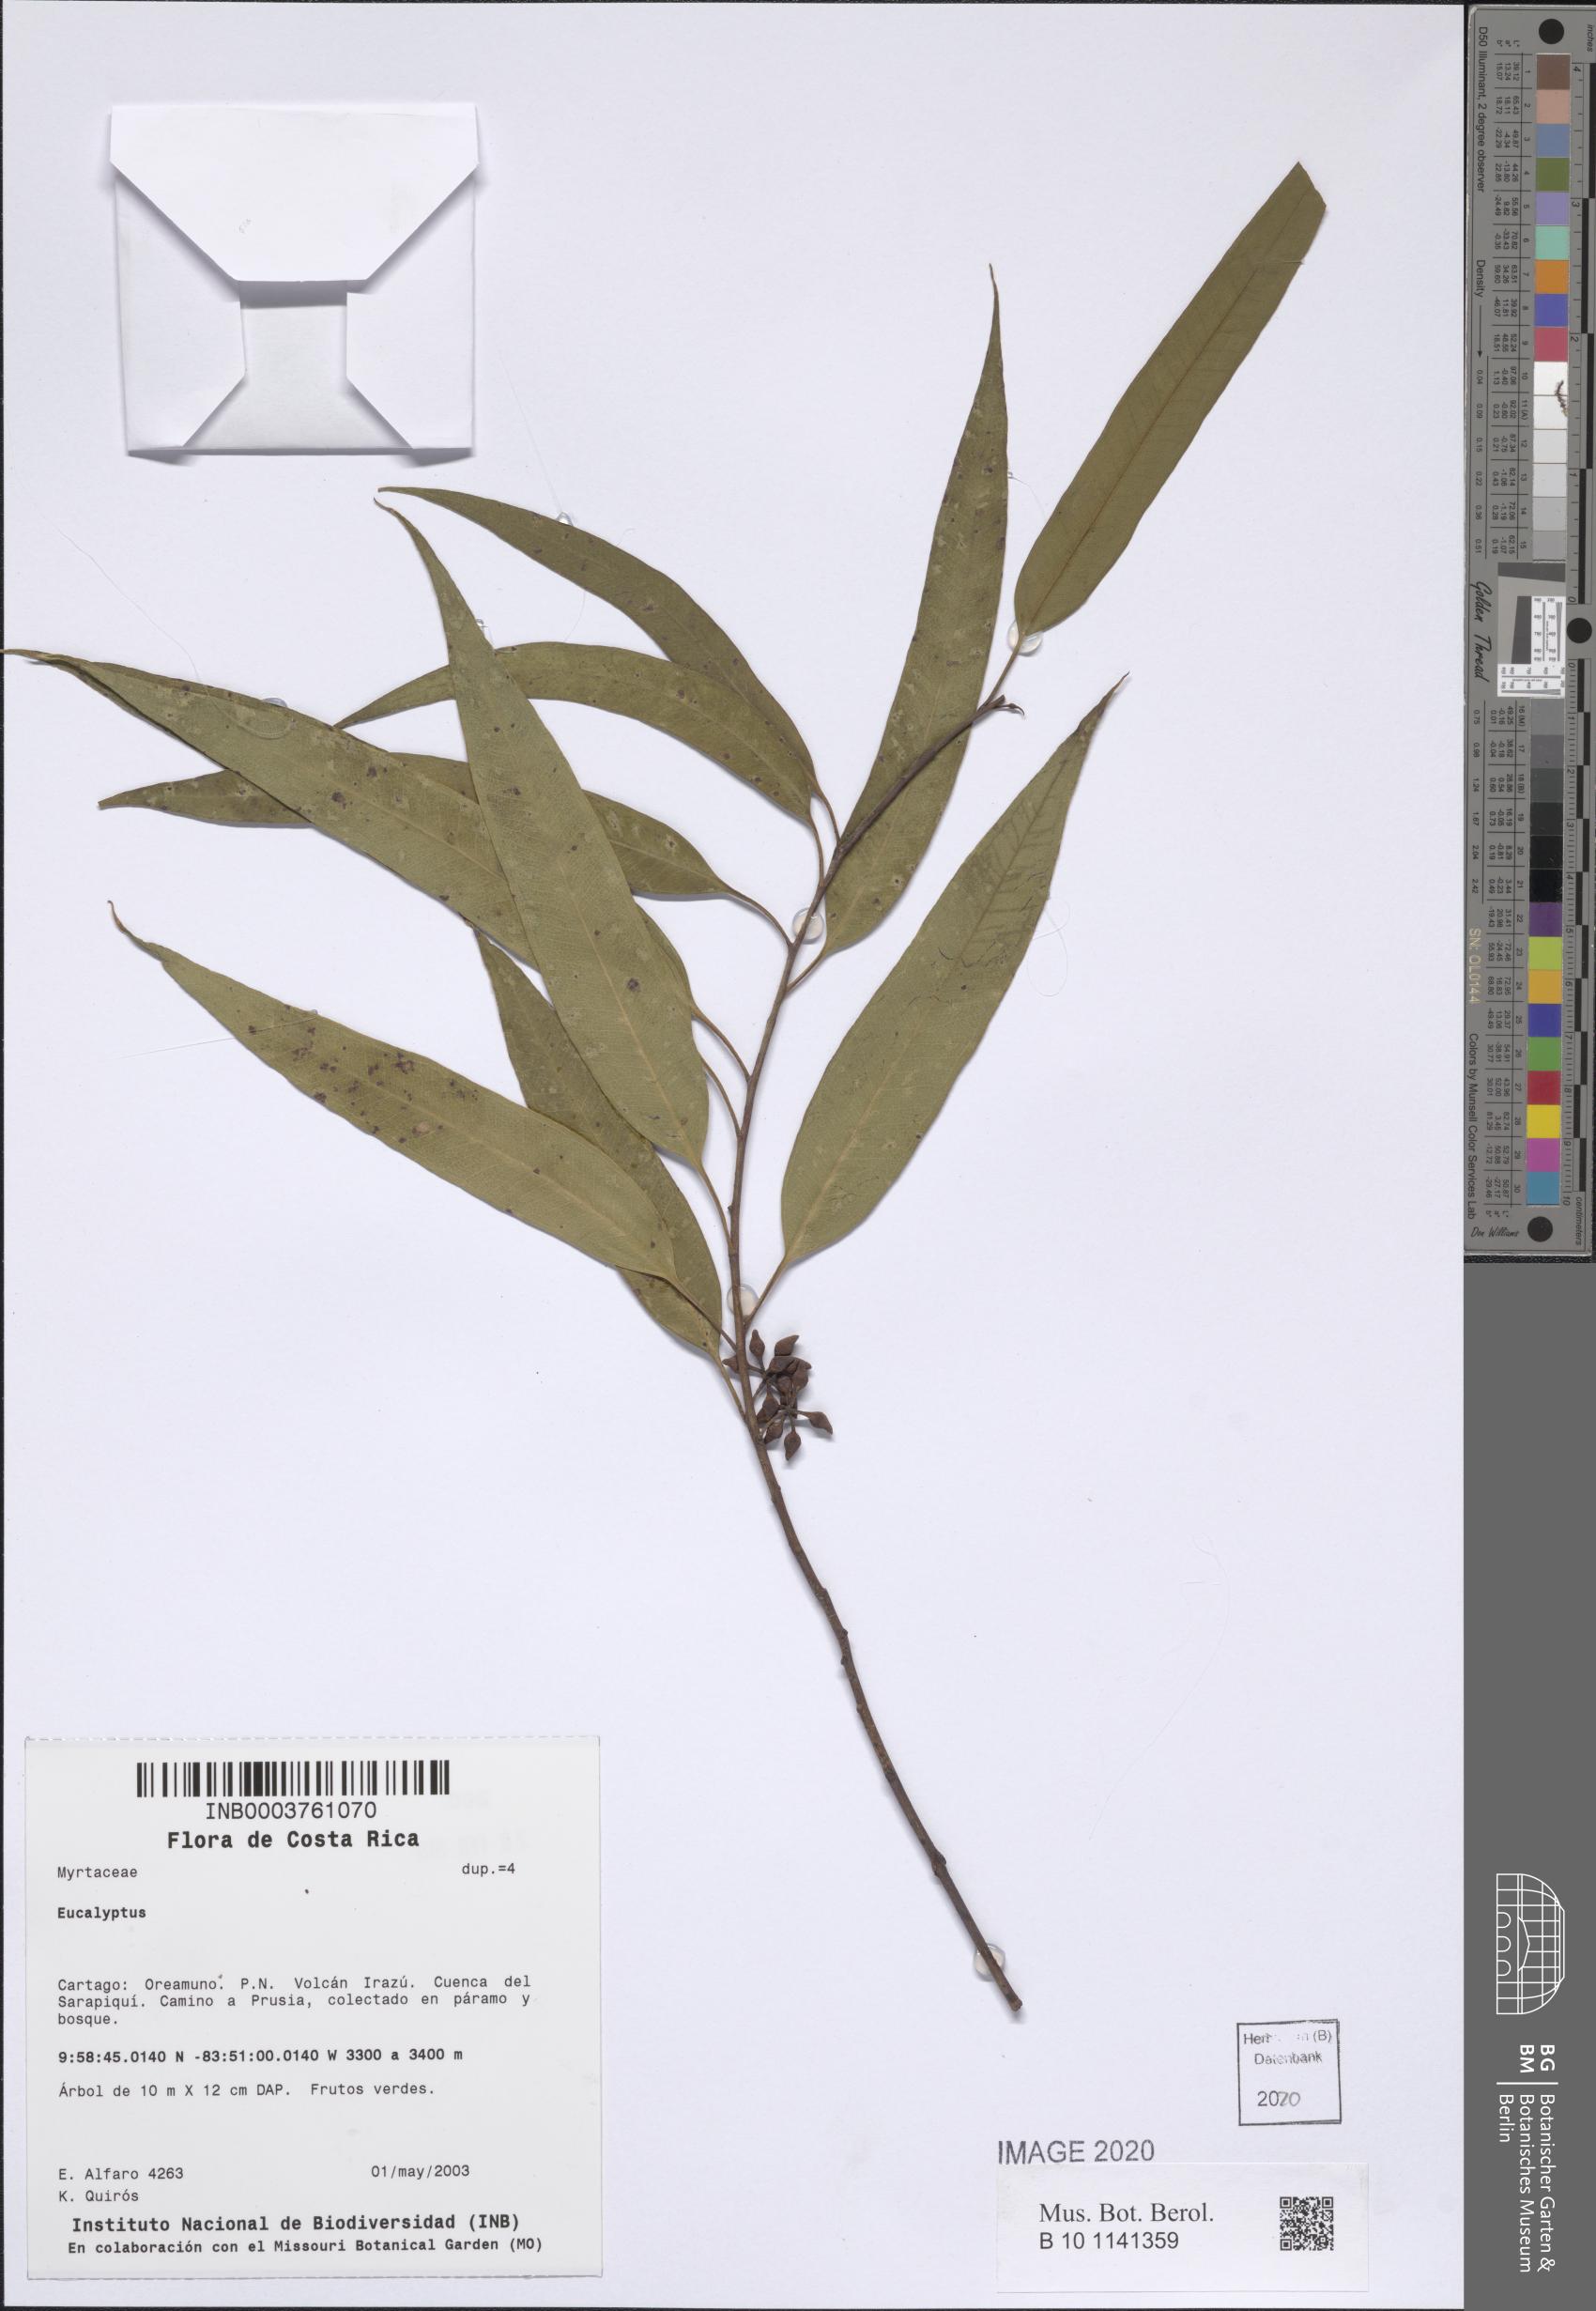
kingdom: Plantae
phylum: Tracheophyta
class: Magnoliopsida
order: Myrtales
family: Myrtaceae
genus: Eucalyptus
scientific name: Eucalyptus
